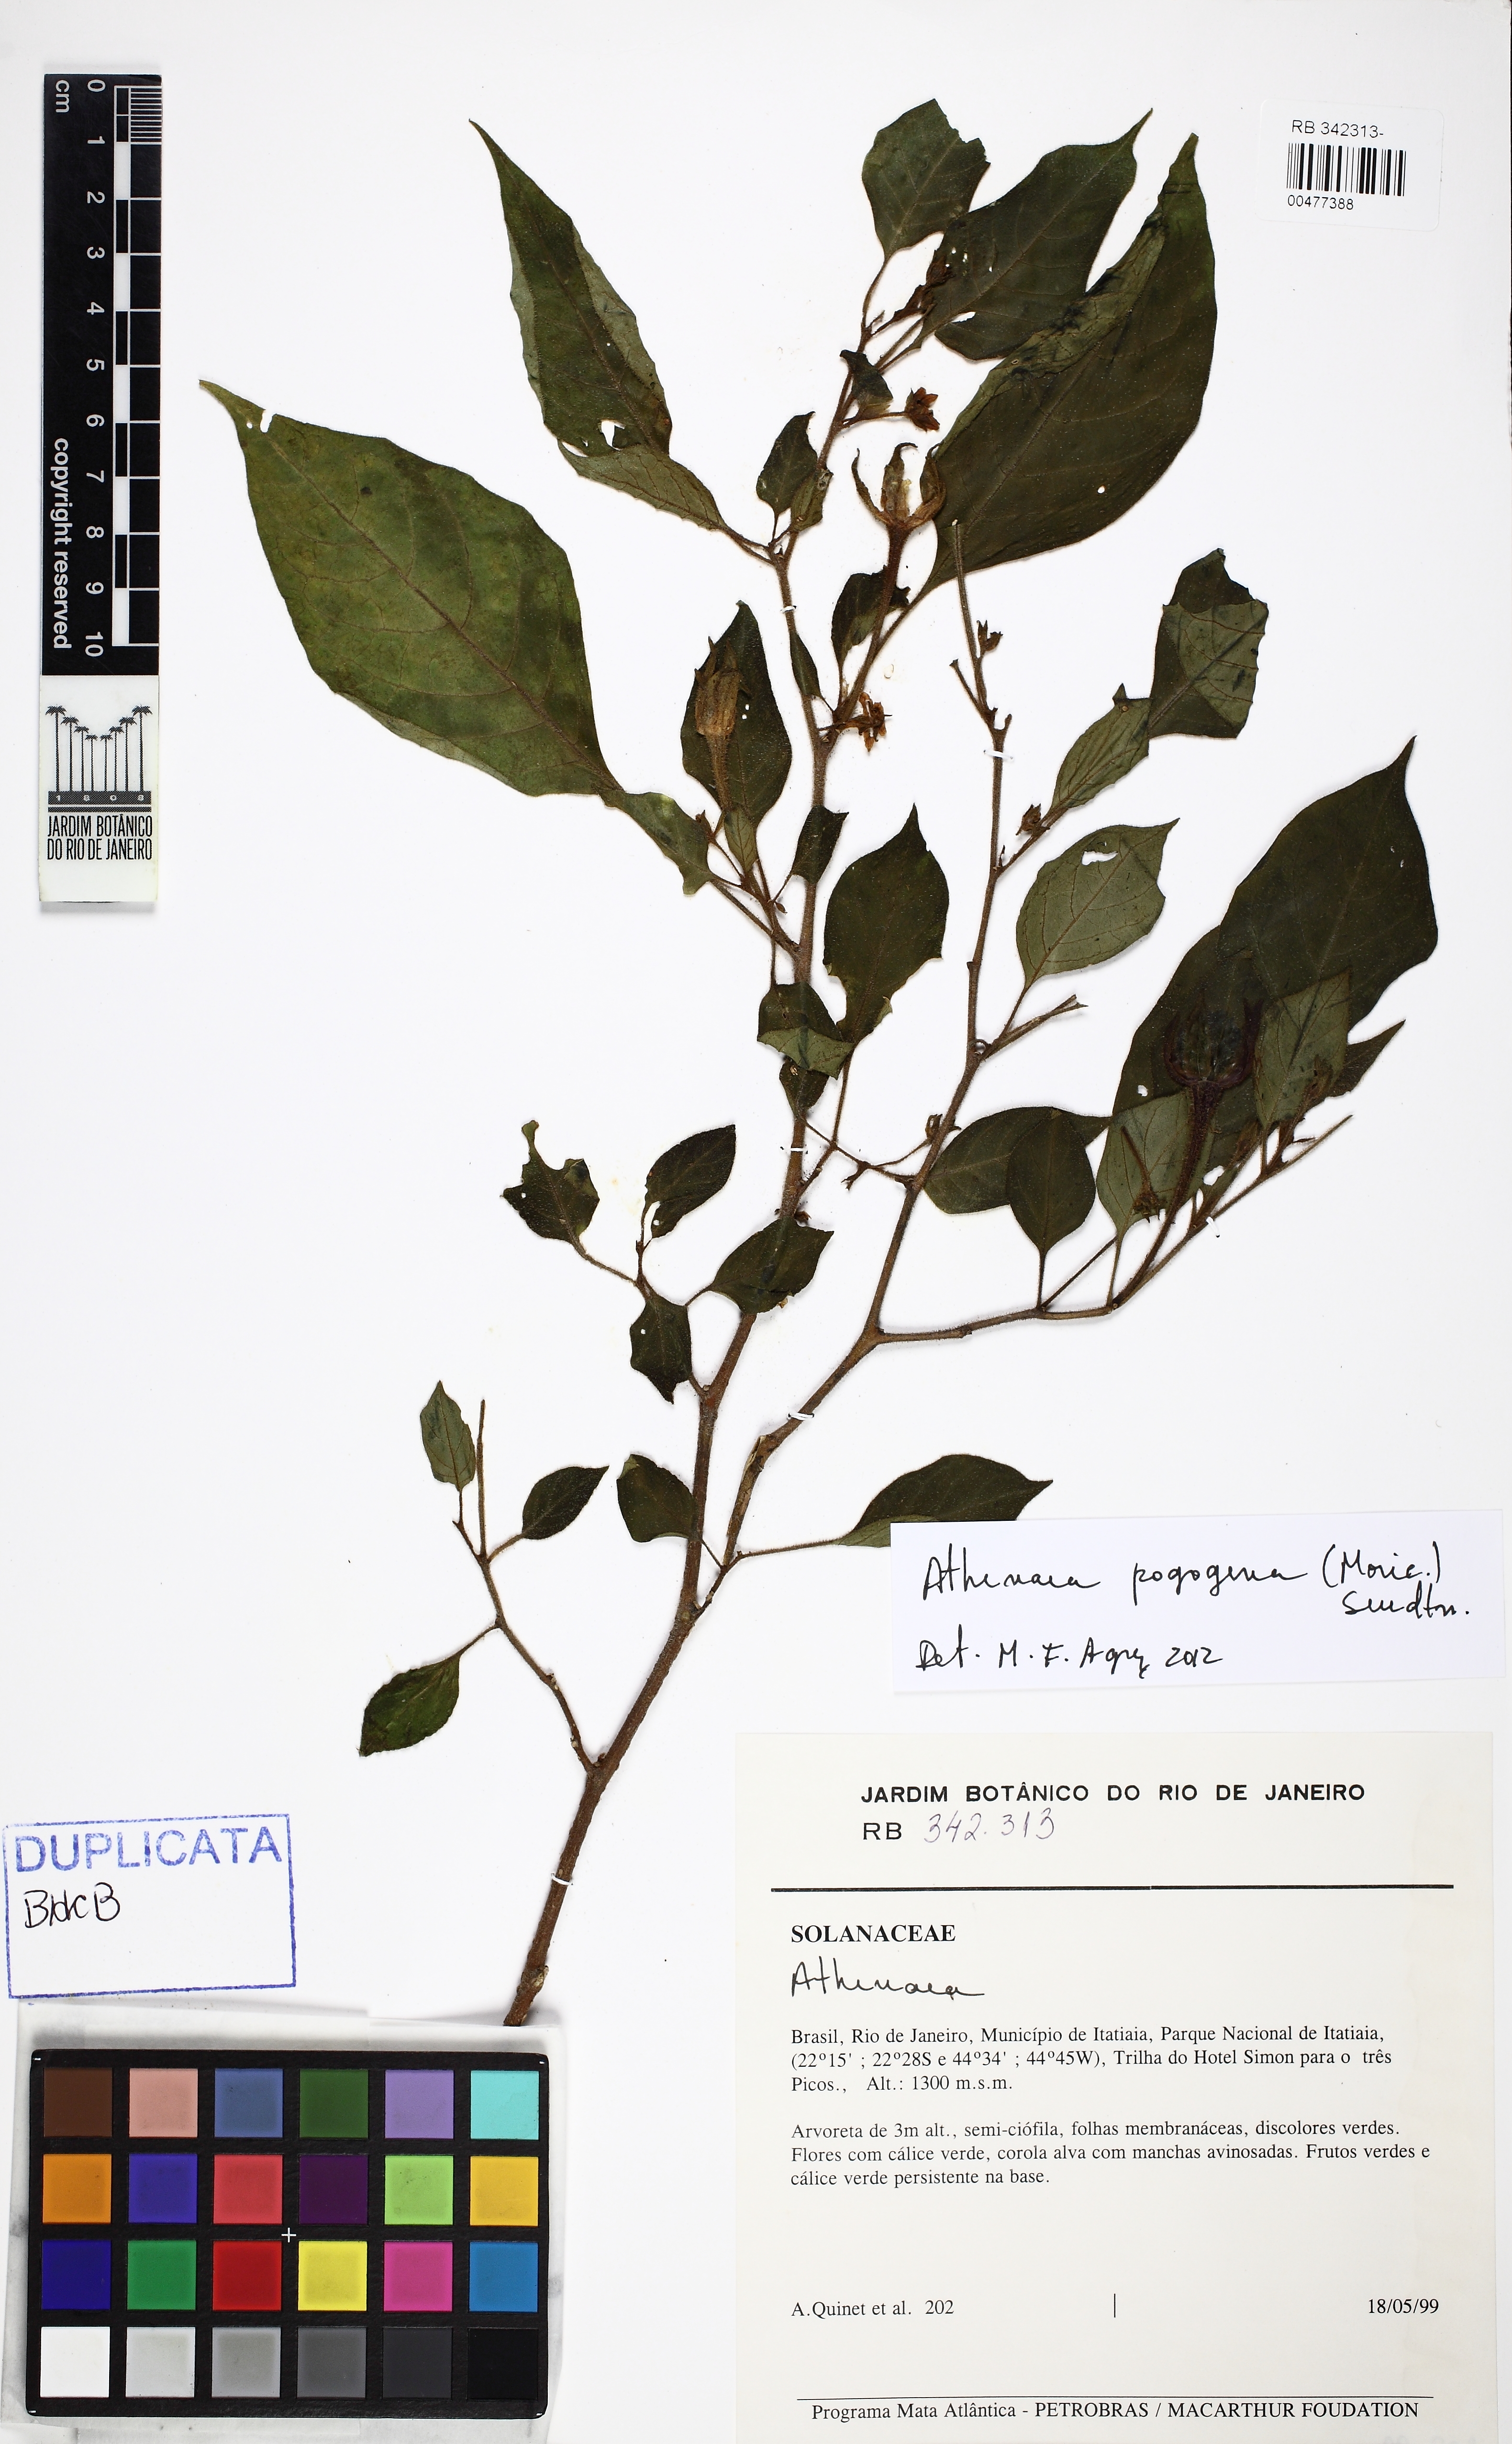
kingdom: Plantae
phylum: Tracheophyta
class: Magnoliopsida
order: Solanales
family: Solanaceae
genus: Athenaea
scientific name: Athenaea pogogena
